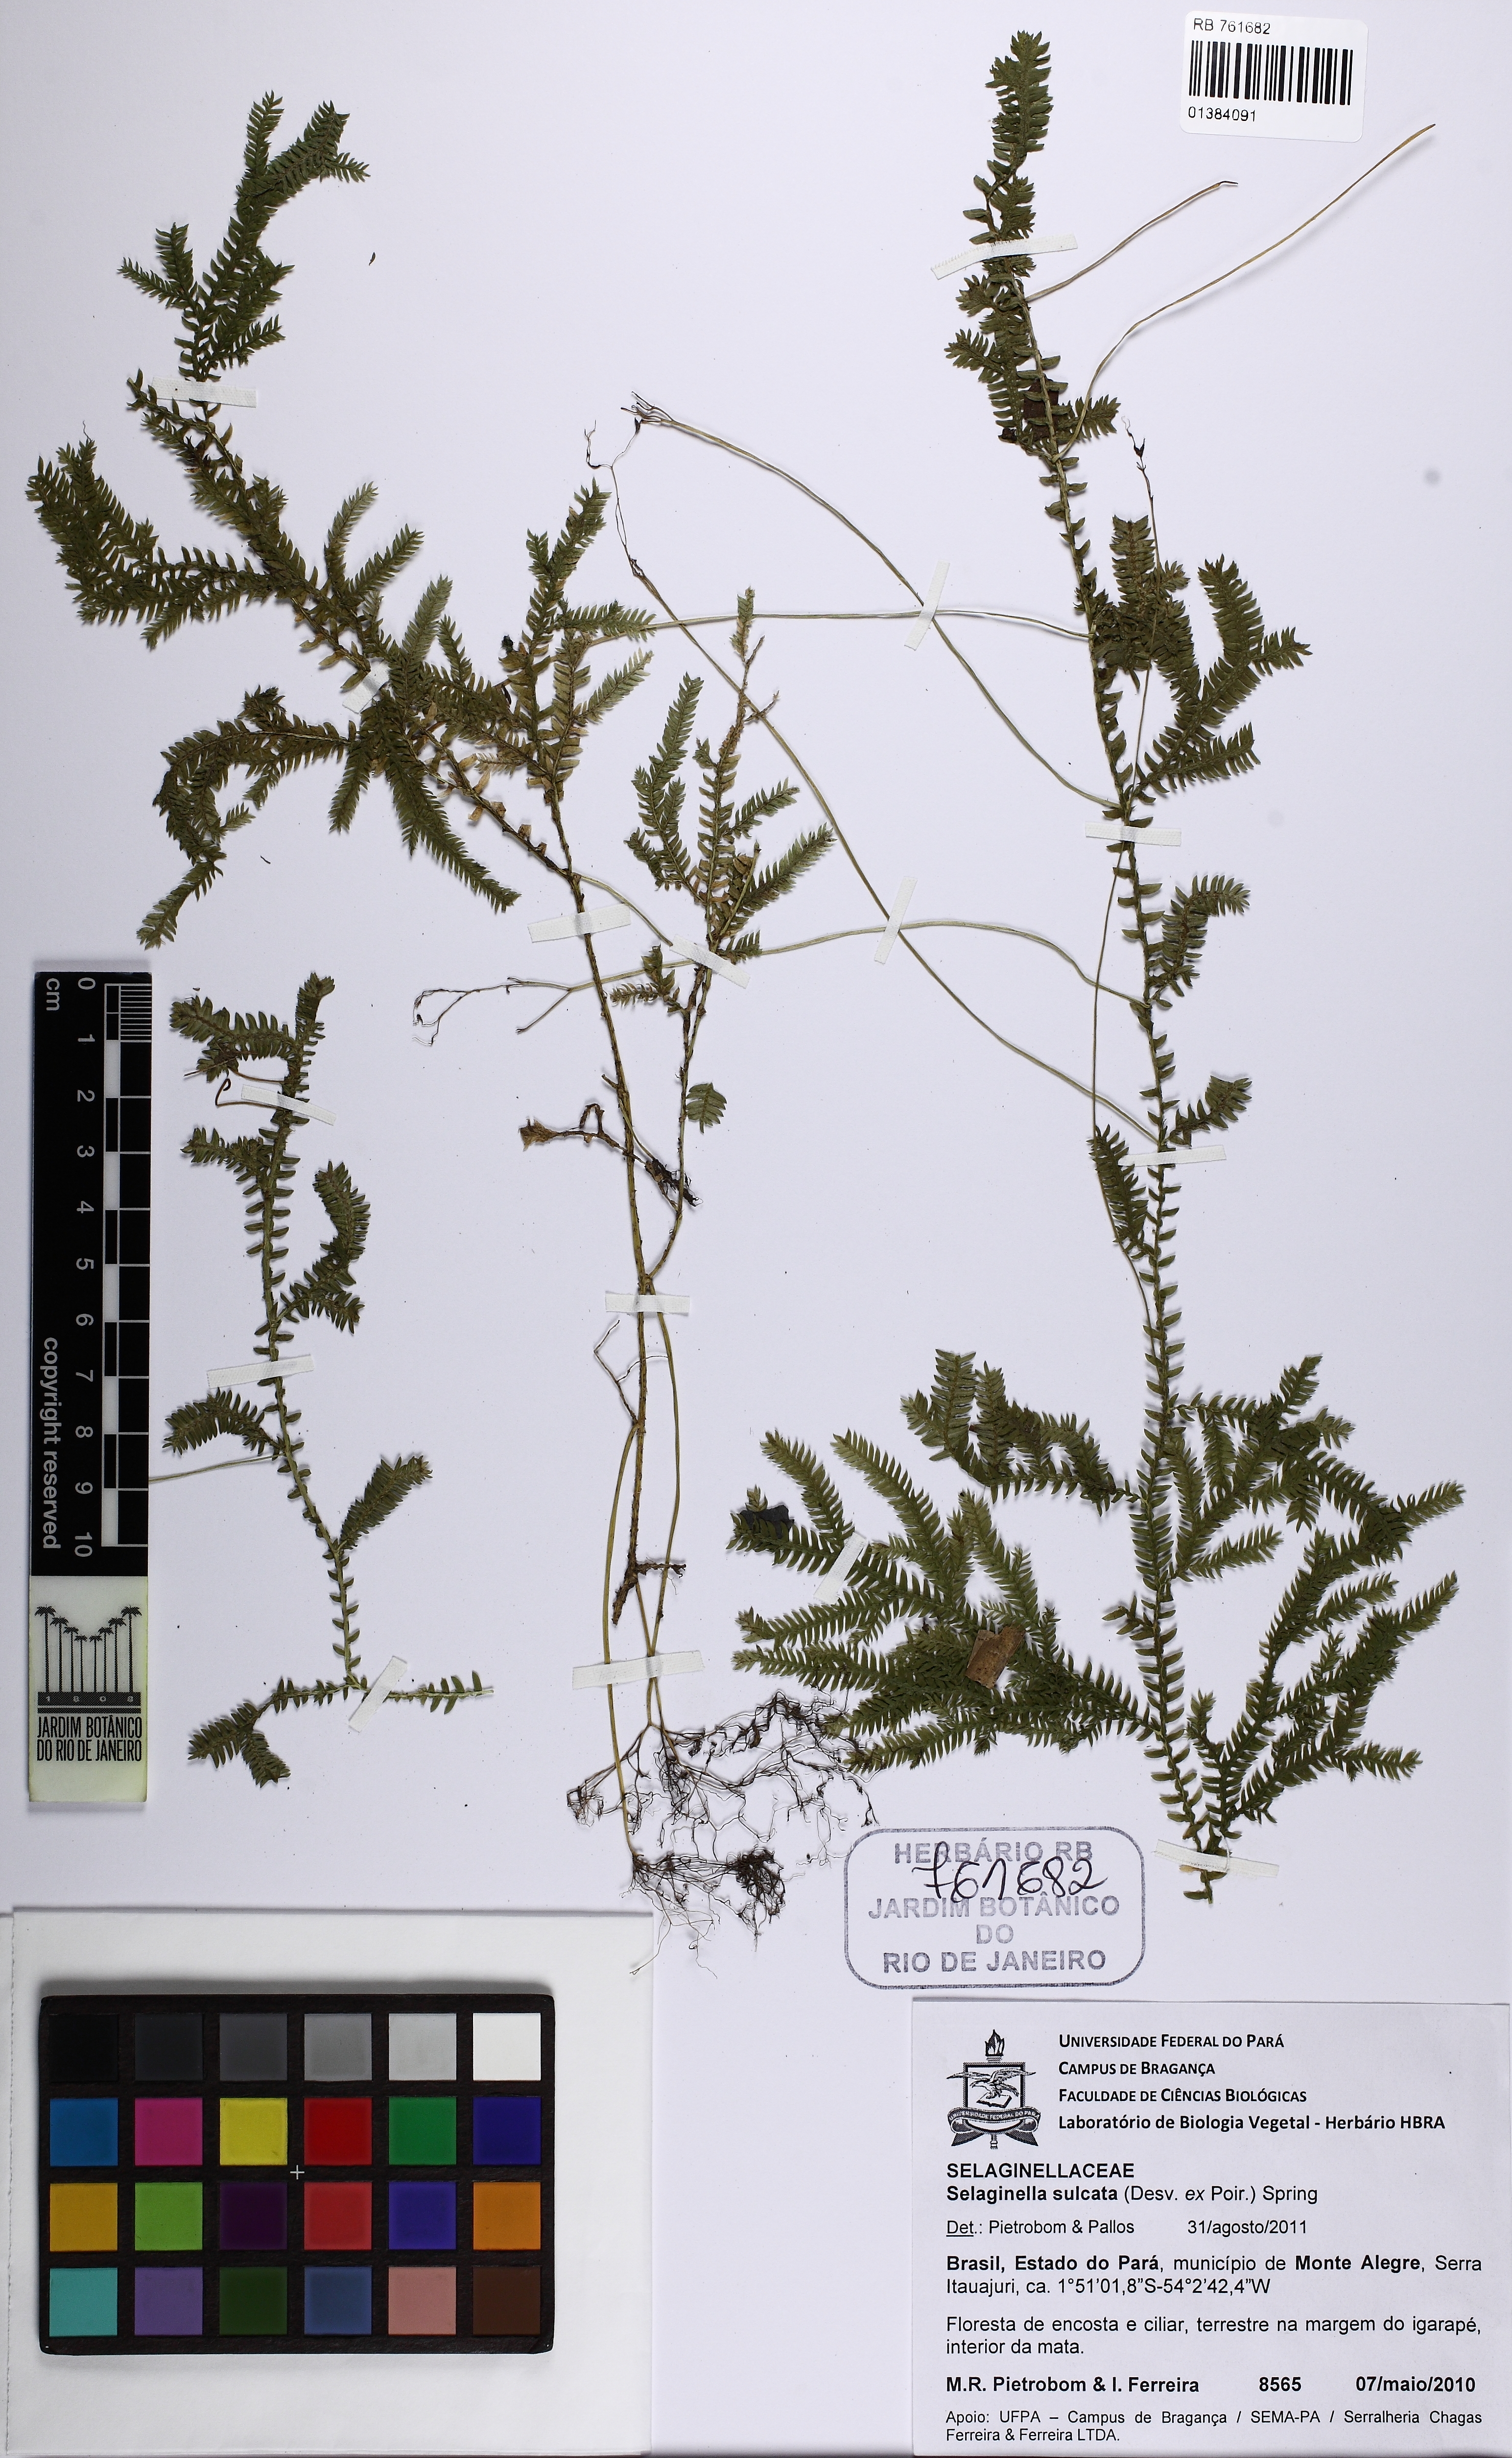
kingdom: Plantae
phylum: Tracheophyta
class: Lycopodiopsida
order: Selaginellales
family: Selaginellaceae
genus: Selaginella
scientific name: Selaginella sulcata
